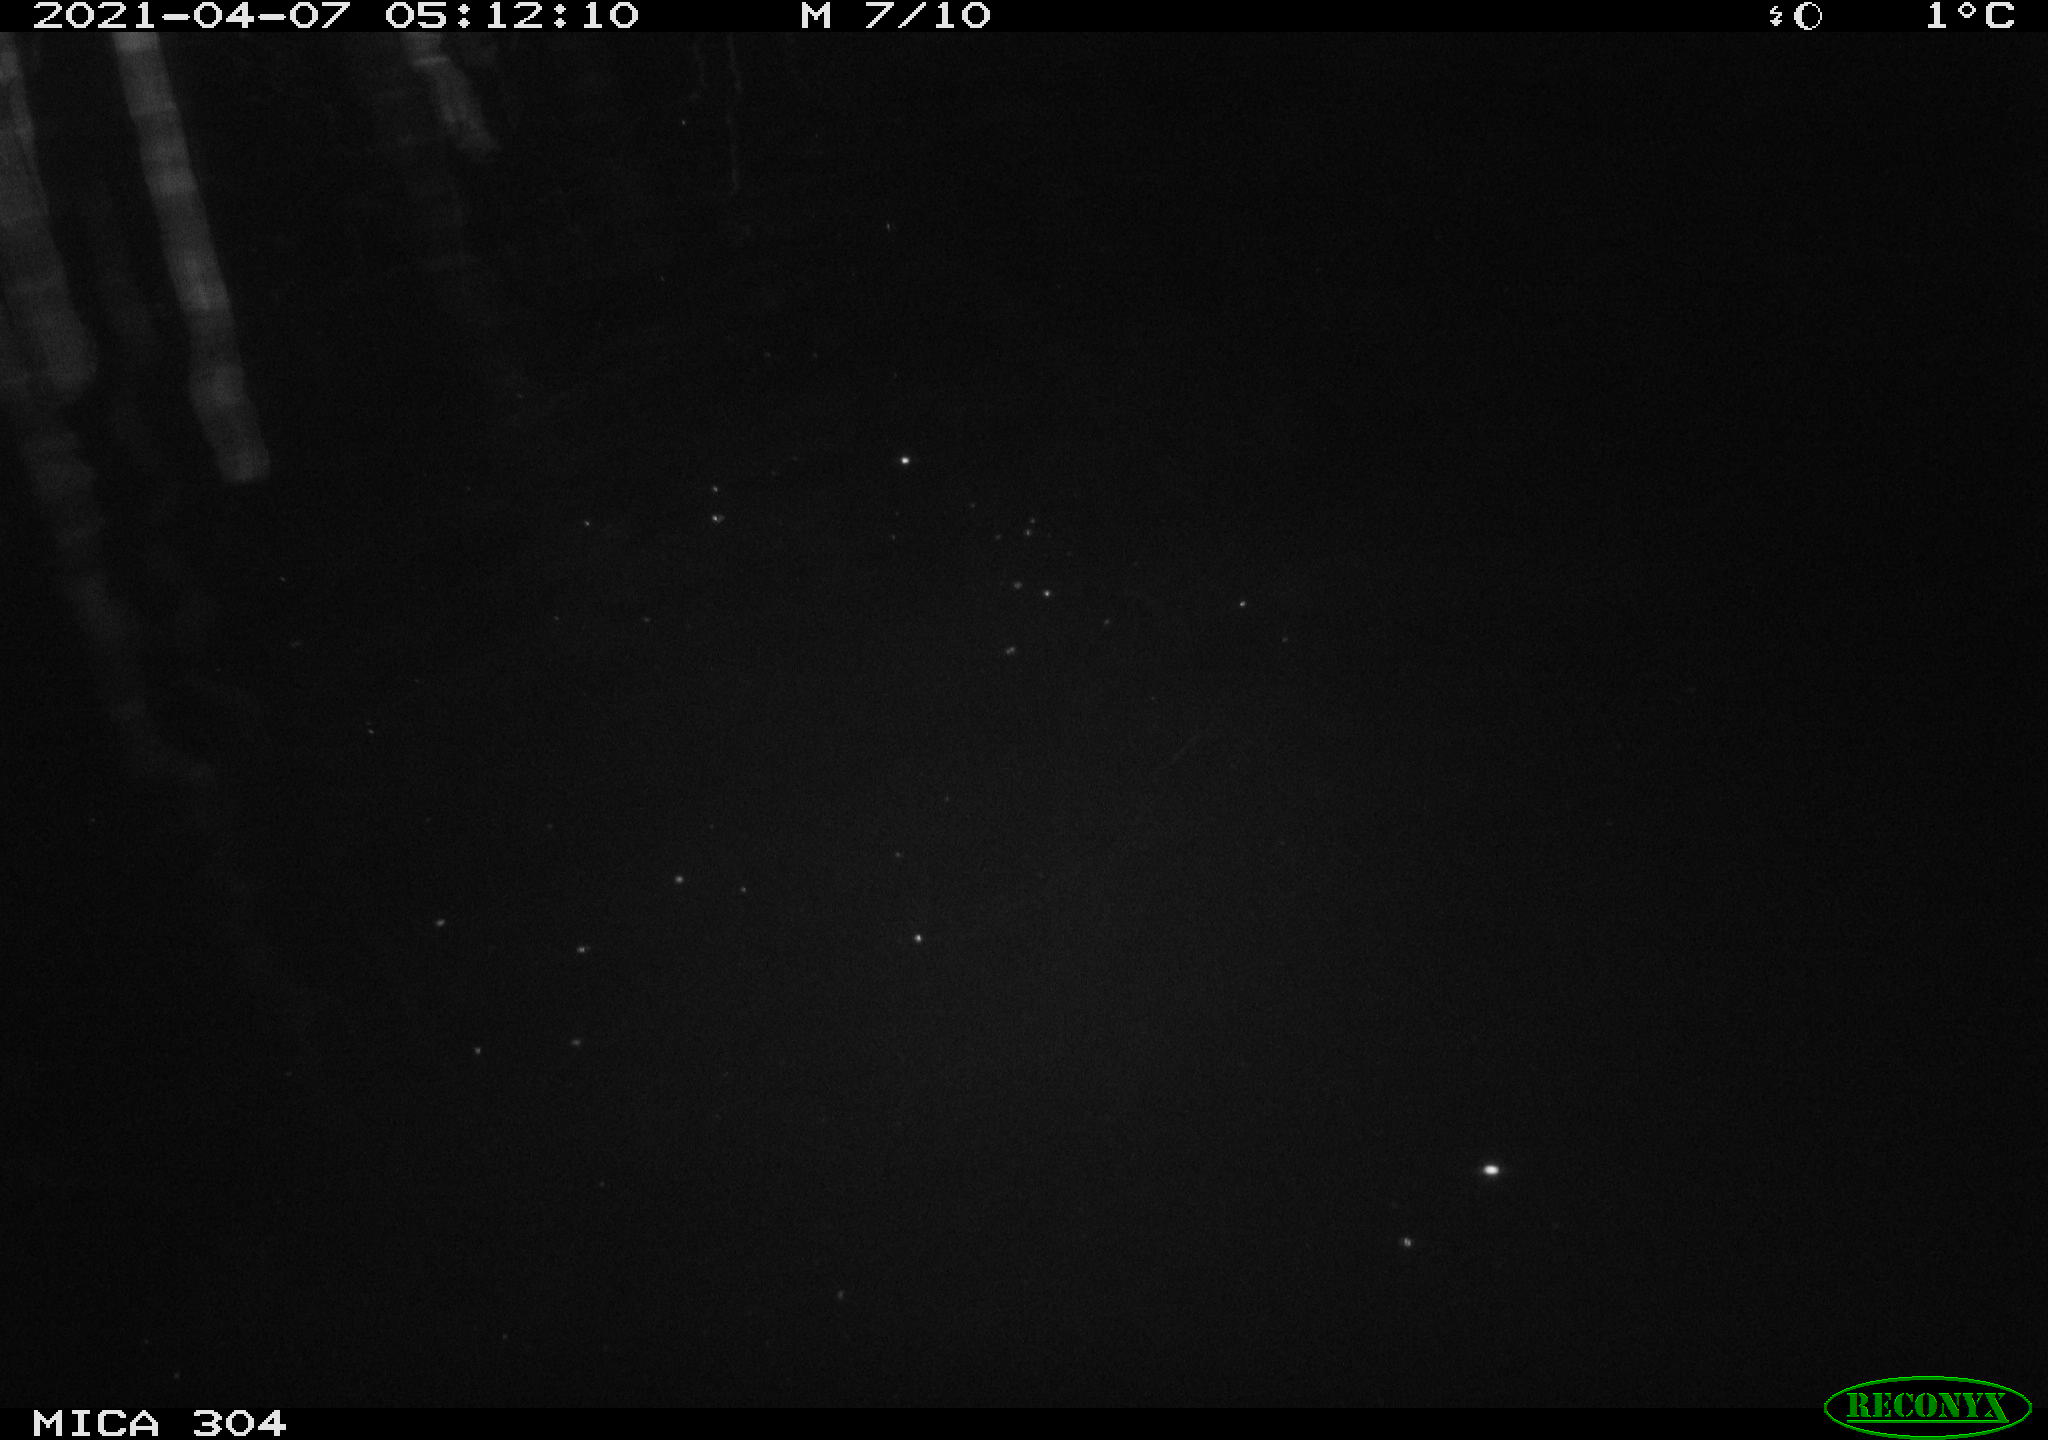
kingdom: Animalia
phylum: Chordata
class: Aves
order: Anseriformes
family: Anatidae
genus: Anas
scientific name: Anas
